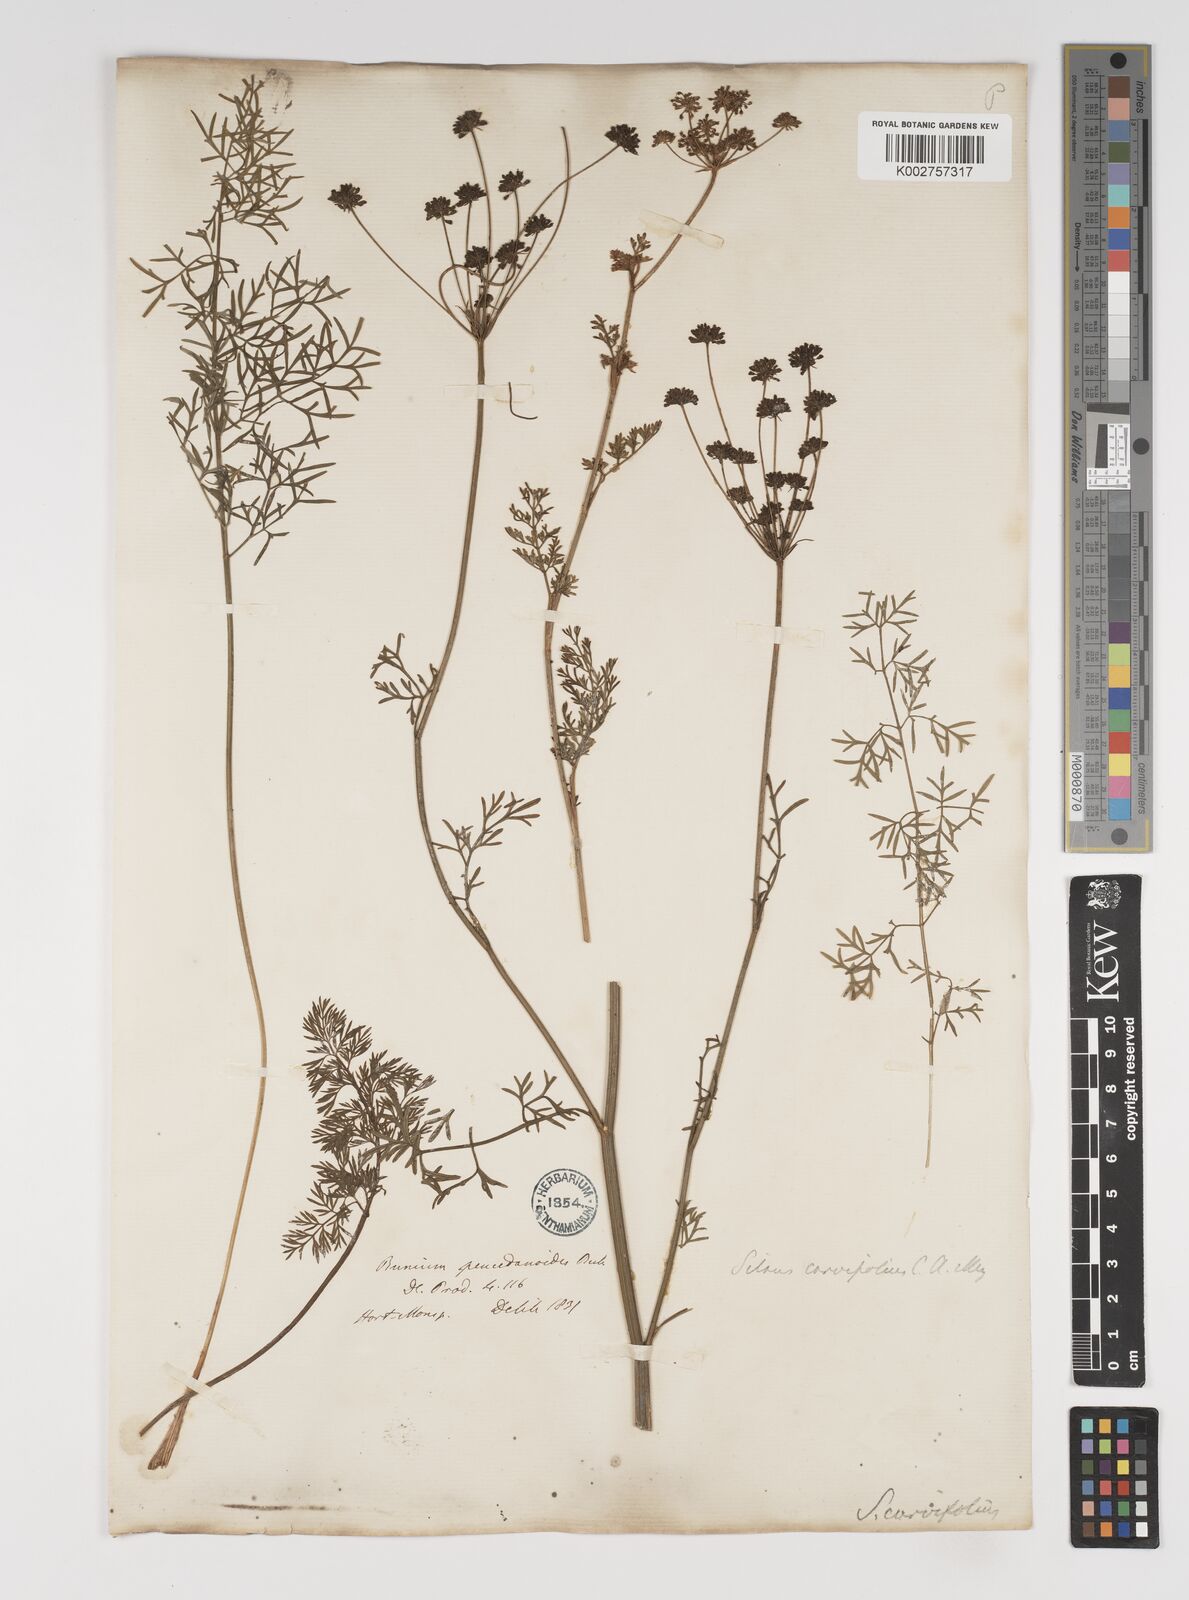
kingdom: Plantae
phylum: Tracheophyta
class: Magnoliopsida
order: Apiales
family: Apiaceae
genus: Gasparinia
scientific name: Gasparinia peucedanoides
